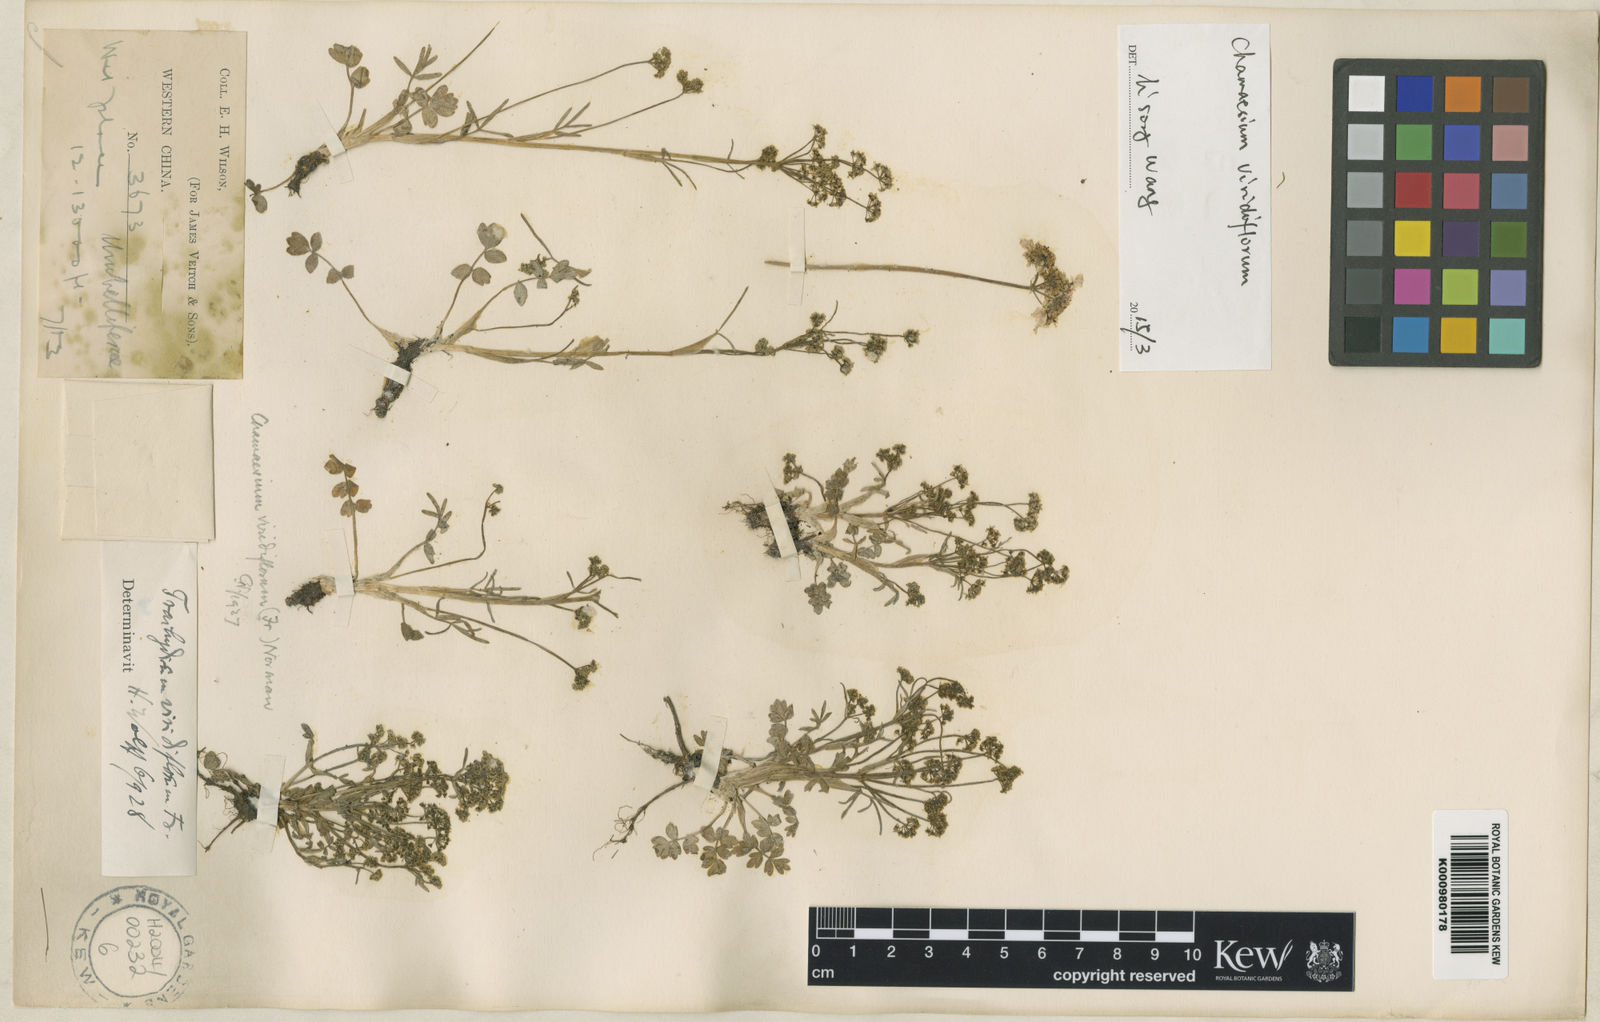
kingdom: Plantae
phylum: Tracheophyta
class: Magnoliopsida
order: Apiales
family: Apiaceae
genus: Chamaesium
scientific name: Chamaesium viridiflorum
